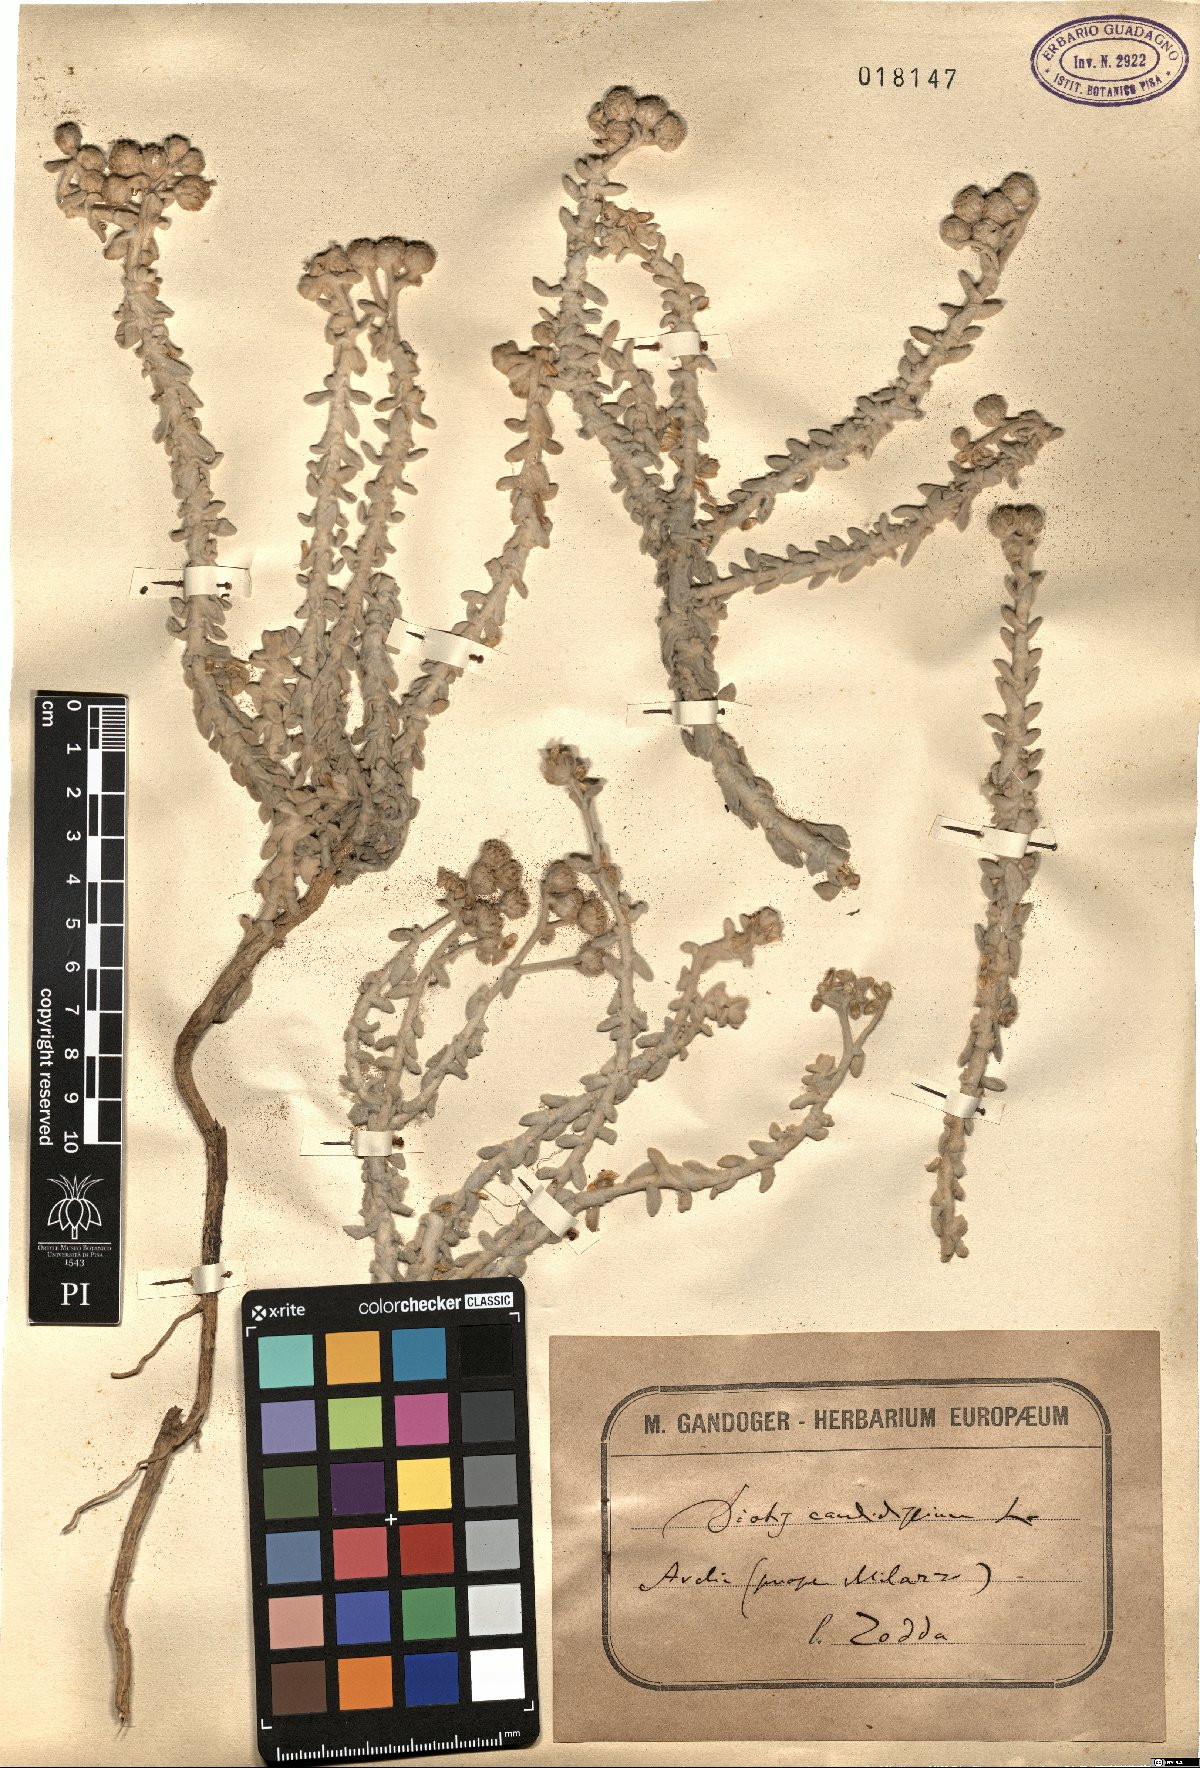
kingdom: Plantae
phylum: Tracheophyta
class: Magnoliopsida
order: Asterales
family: Asteraceae
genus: Achillea
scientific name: Achillea maritima
